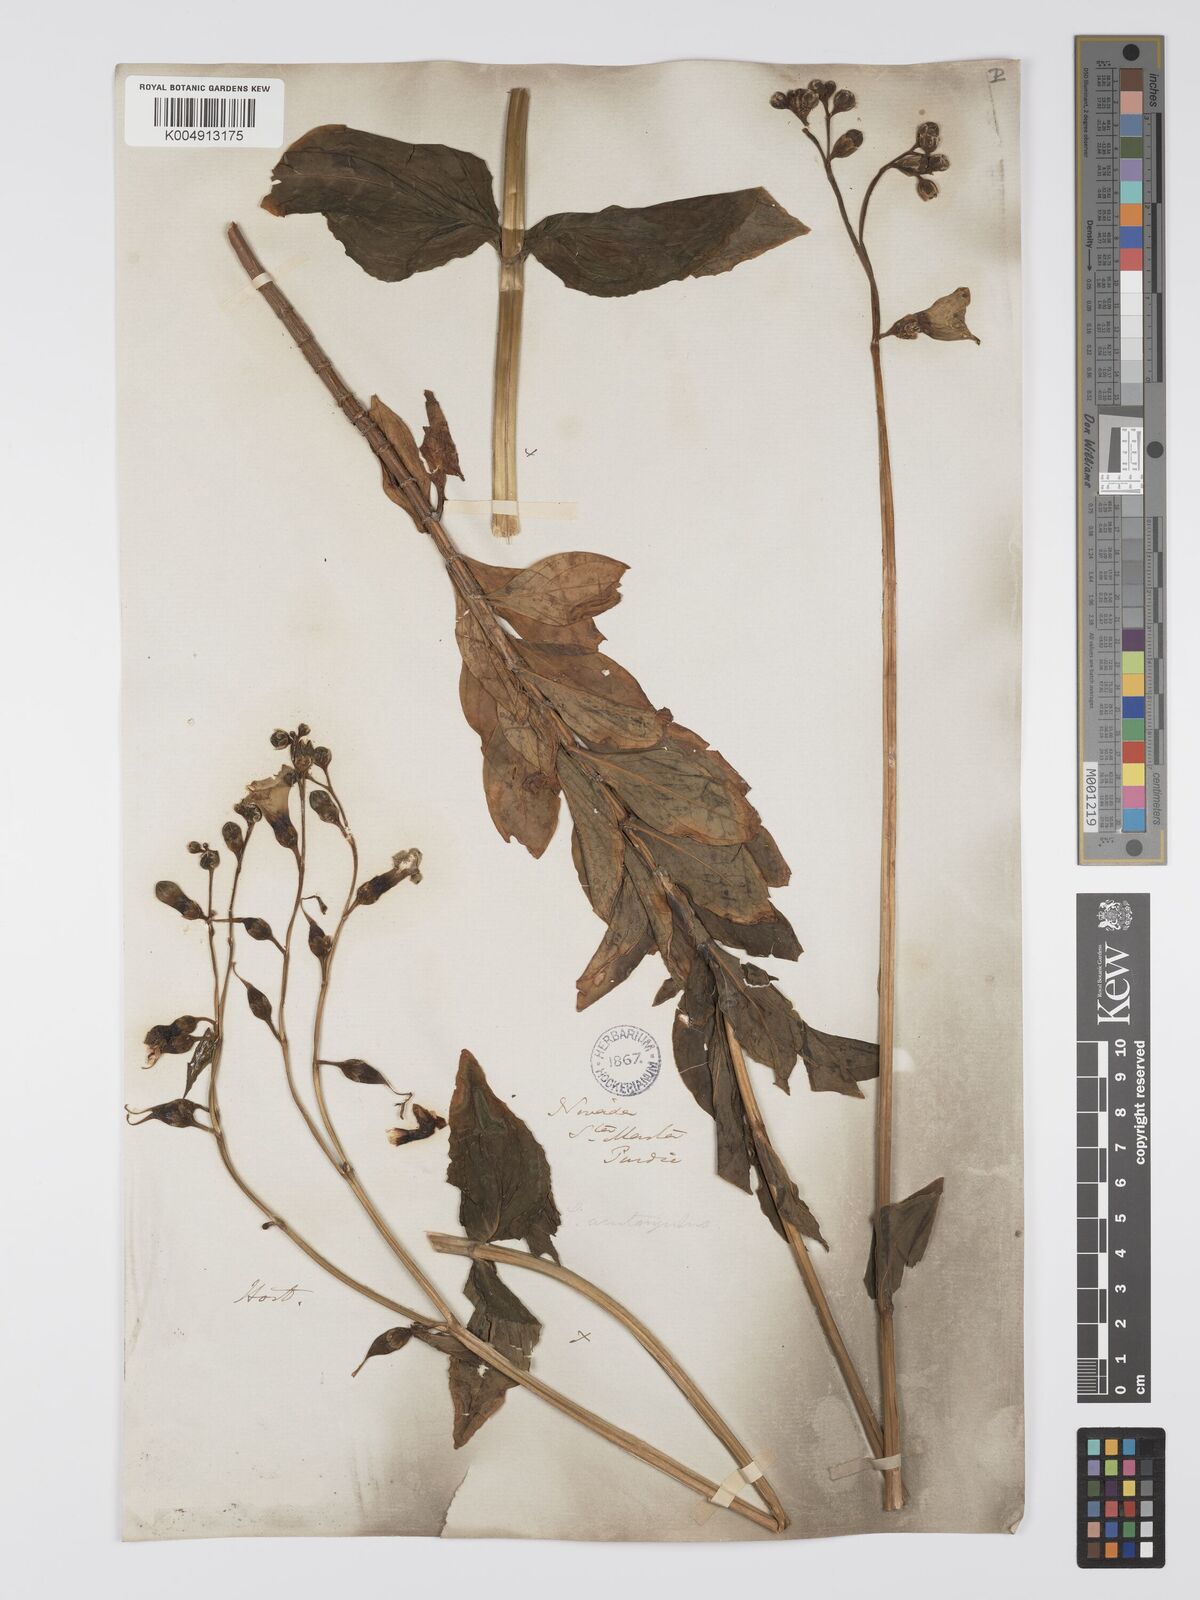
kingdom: Plantae
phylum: Tracheophyta
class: Magnoliopsida
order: Gentianales
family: Gentianaceae
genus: Chelonanthus
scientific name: Chelonanthus
